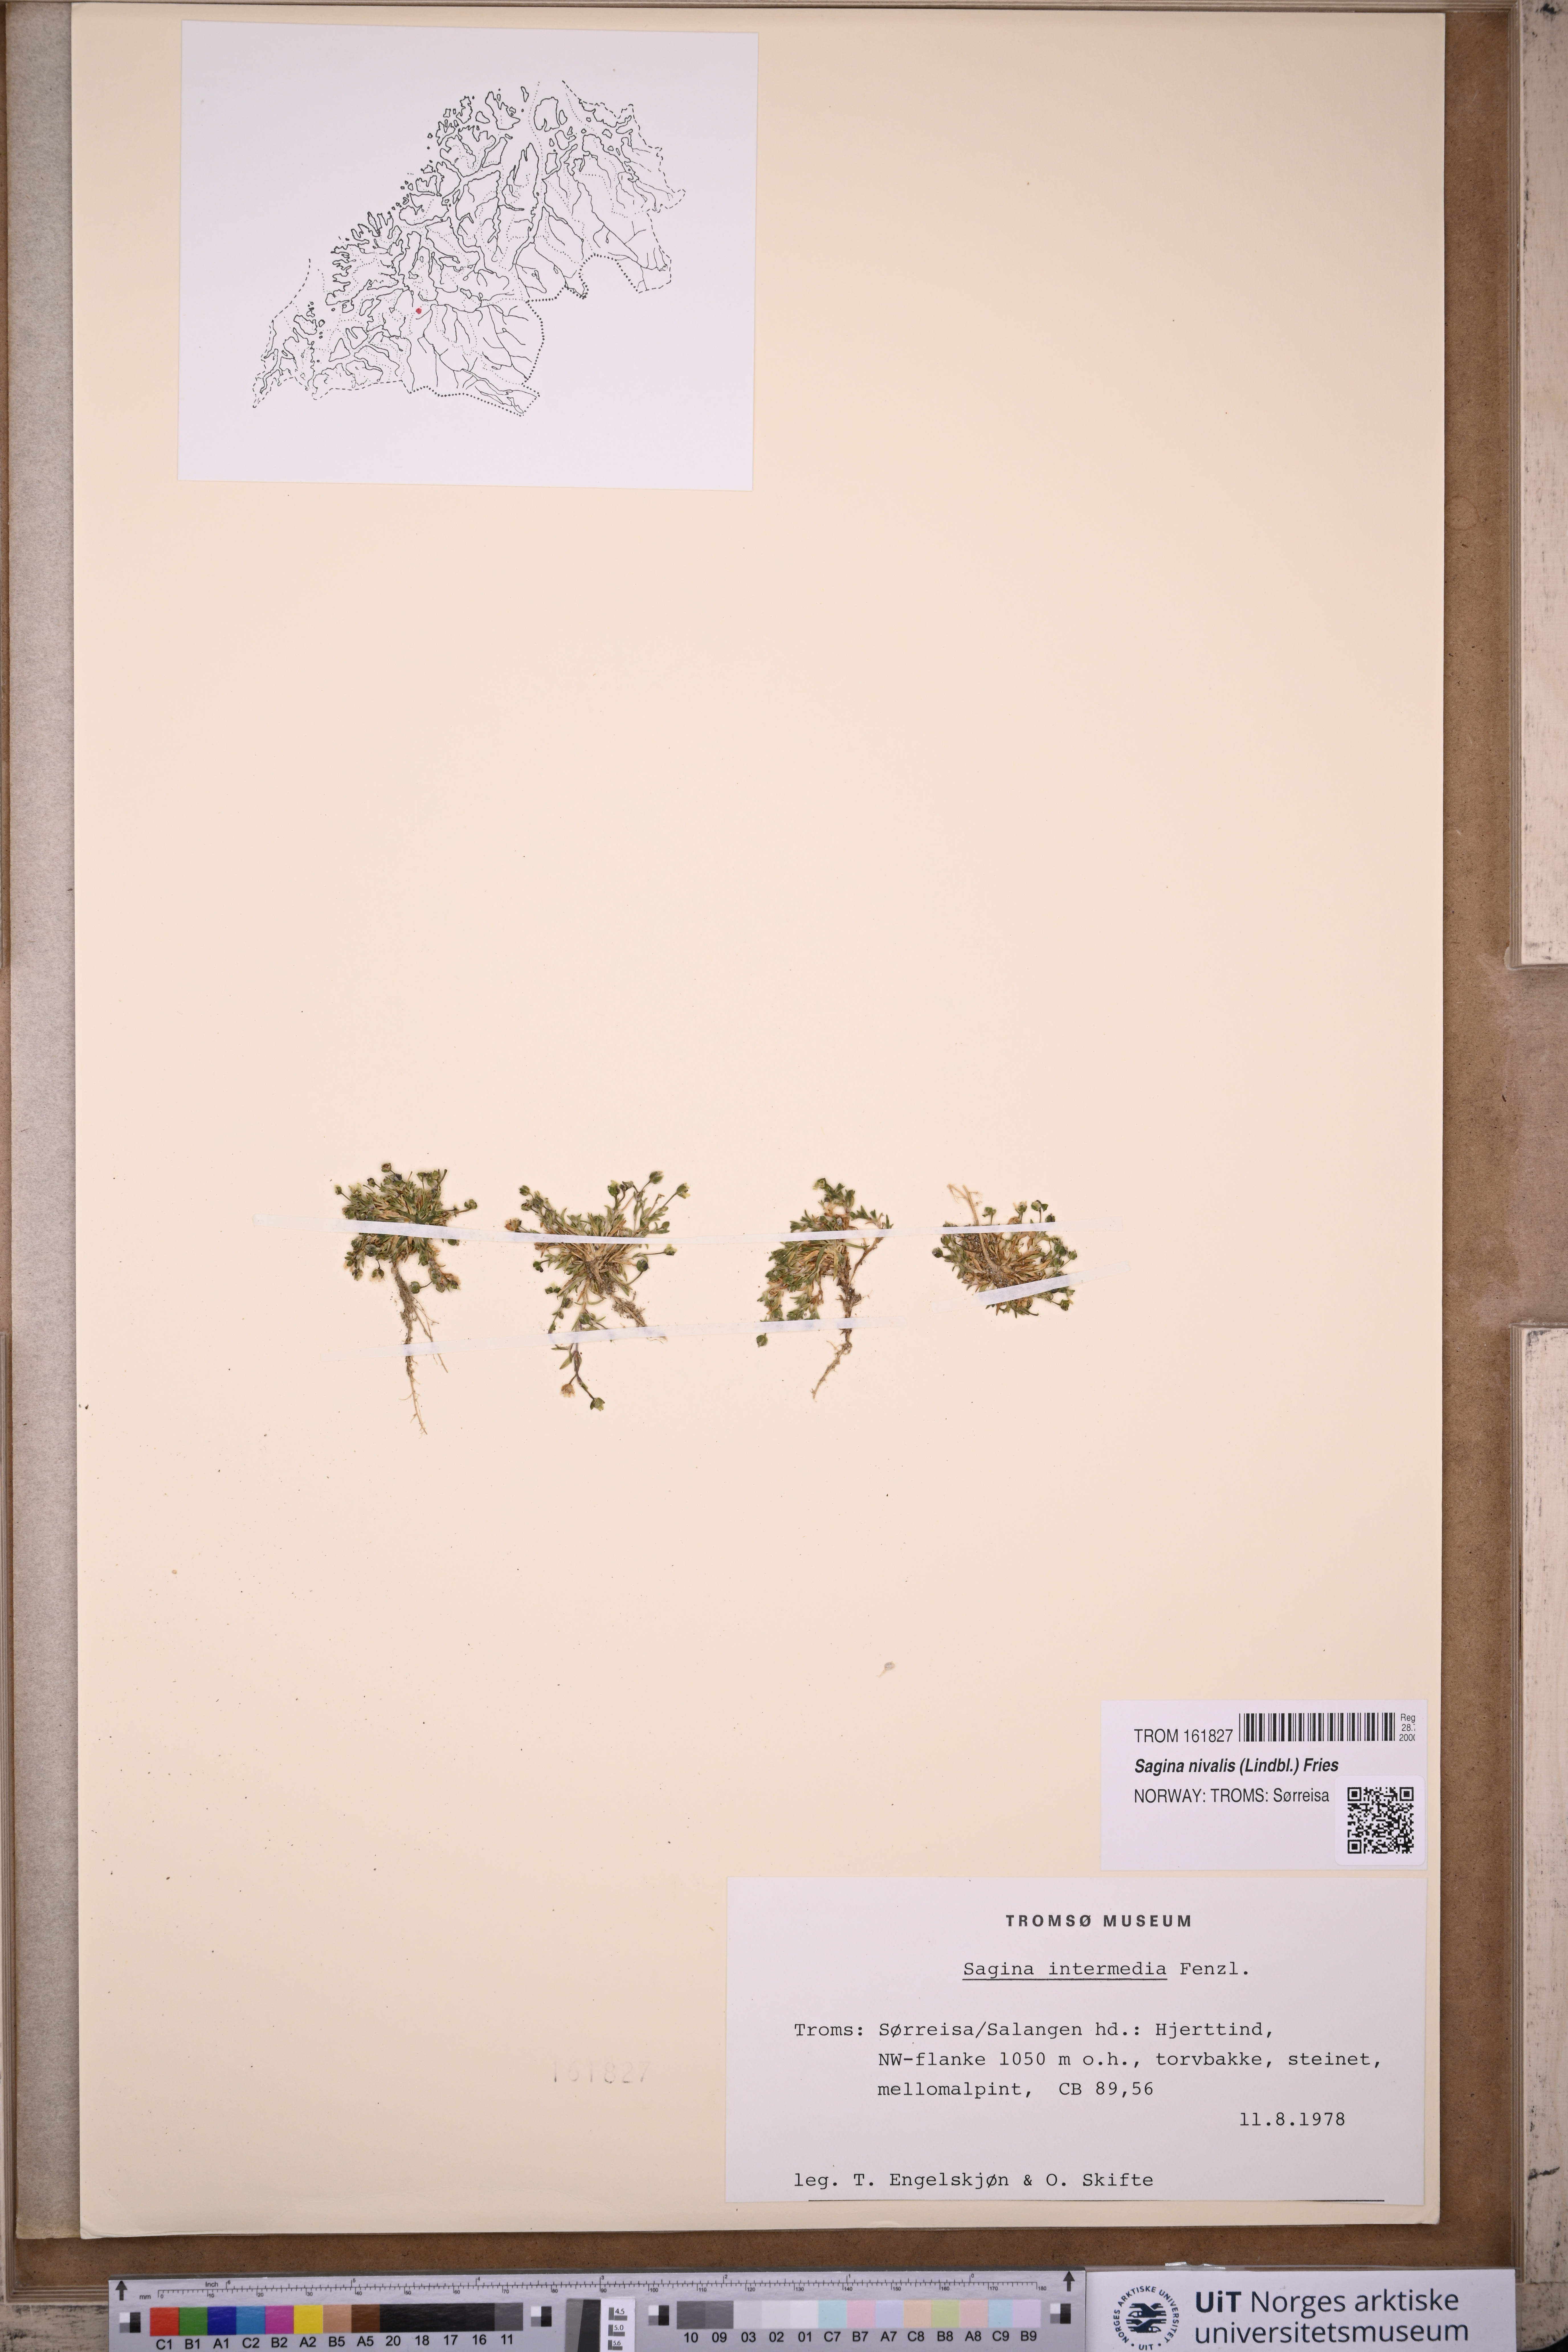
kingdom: Plantae
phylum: Tracheophyta
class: Magnoliopsida
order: Caryophyllales
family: Caryophyllaceae
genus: Sagina
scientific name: Sagina nivalis
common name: Snow pearlwort
